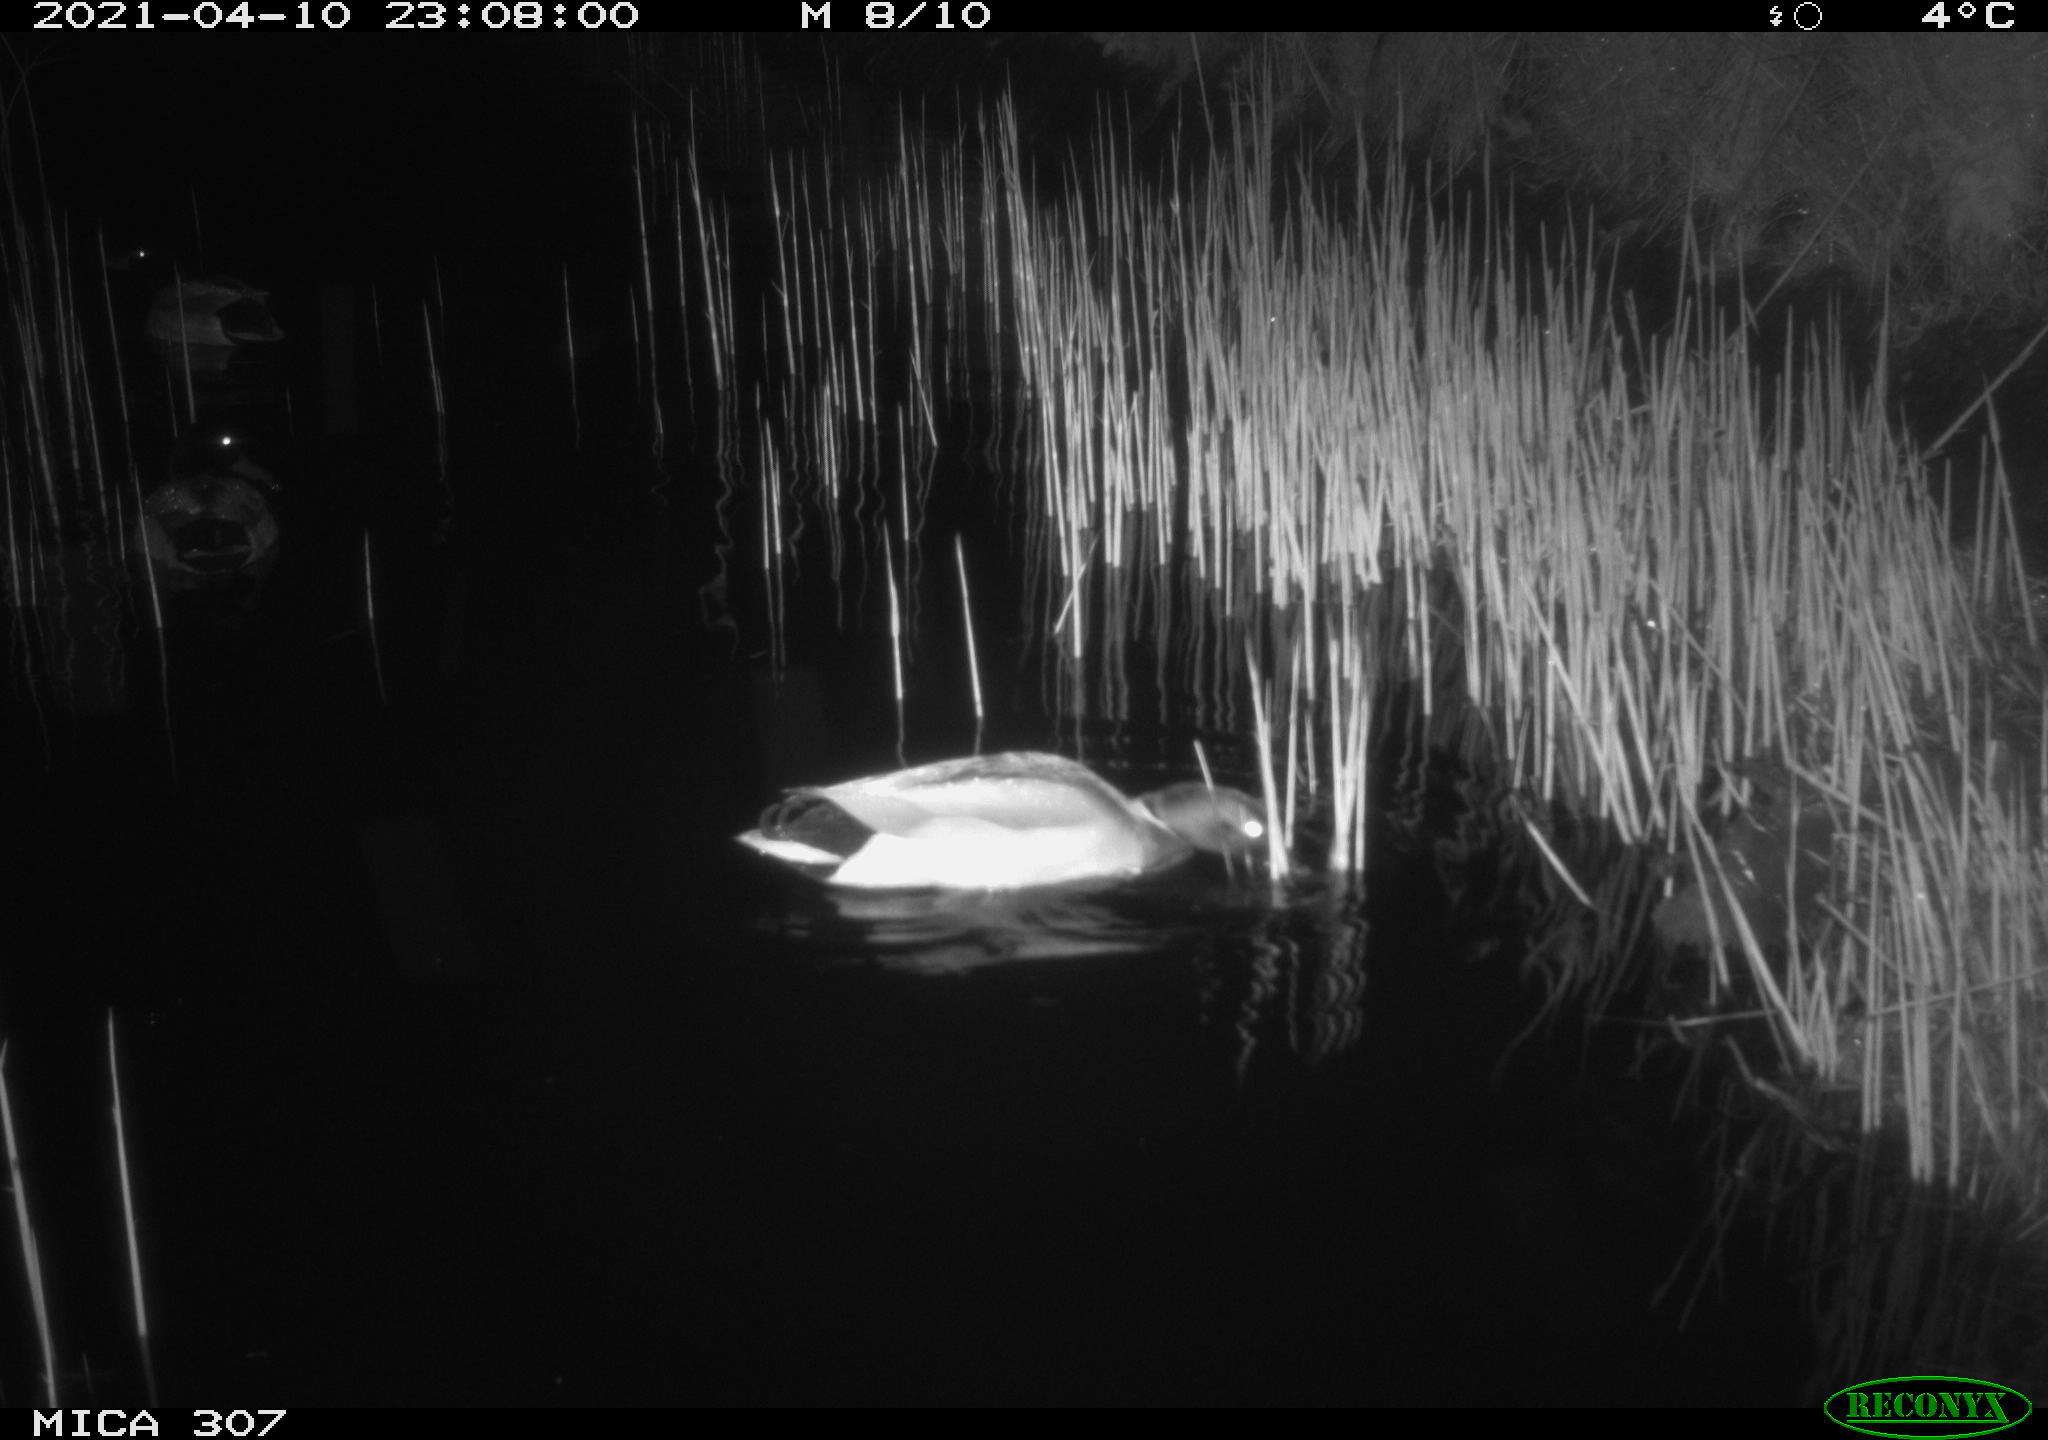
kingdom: Animalia
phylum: Chordata
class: Aves
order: Anseriformes
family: Anatidae
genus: Anas
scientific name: Anas platyrhynchos
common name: Mallard
